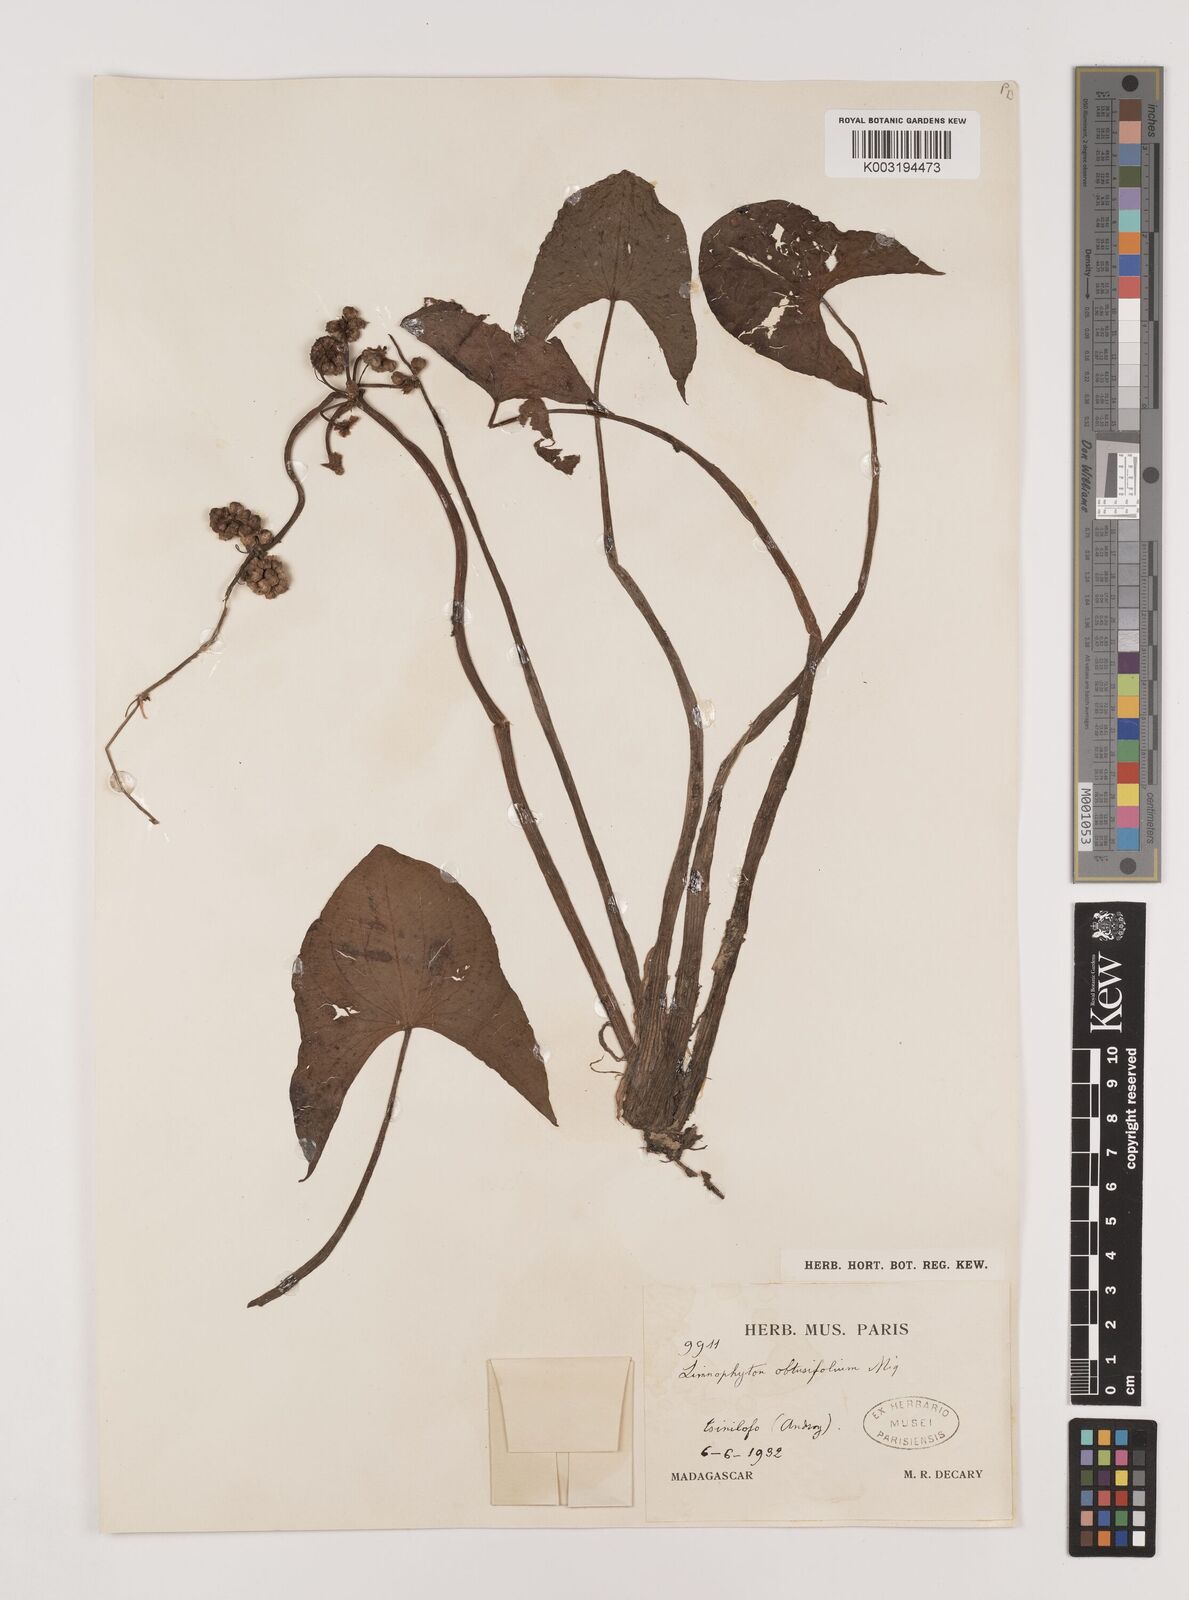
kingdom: Plantae
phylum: Tracheophyta
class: Liliopsida
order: Alismatales
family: Alismataceae
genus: Limnophyton
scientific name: Limnophyton obtusifolium
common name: Arrow head
